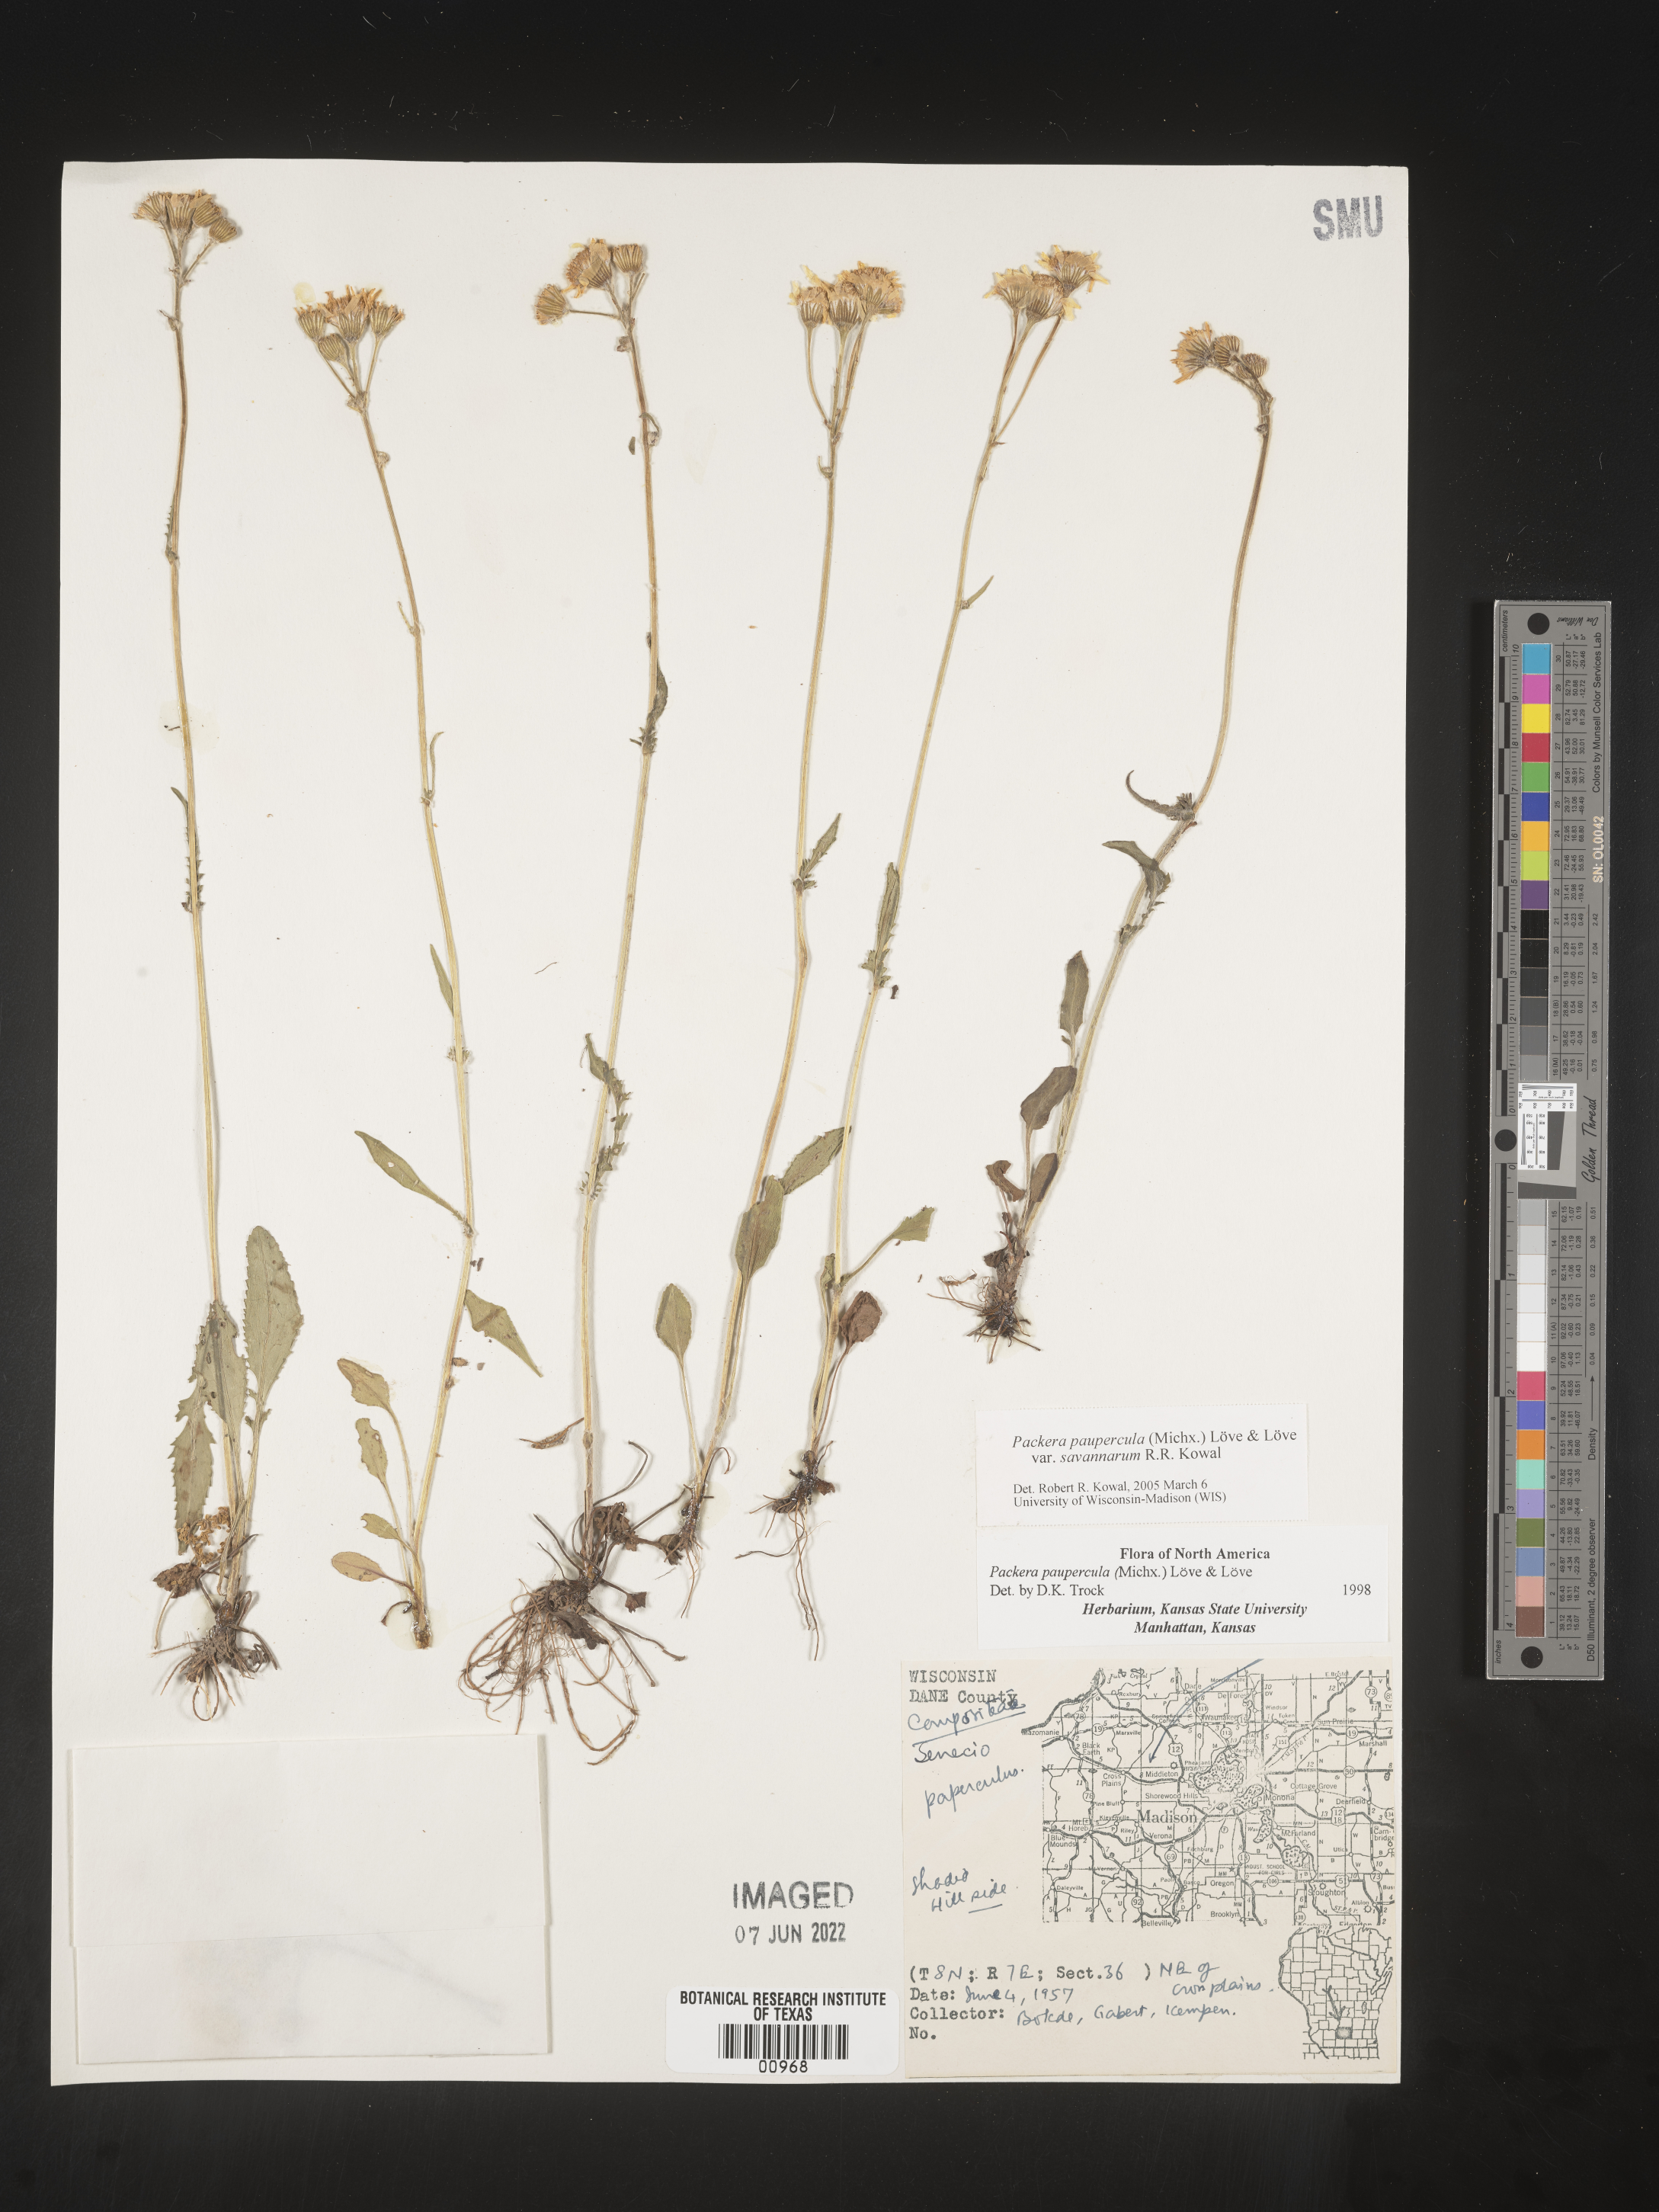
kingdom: Plantae
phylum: Tracheophyta
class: Magnoliopsida
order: Asterales
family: Asteraceae
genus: Packera
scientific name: Packera paupercula
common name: Balsam groundsel
